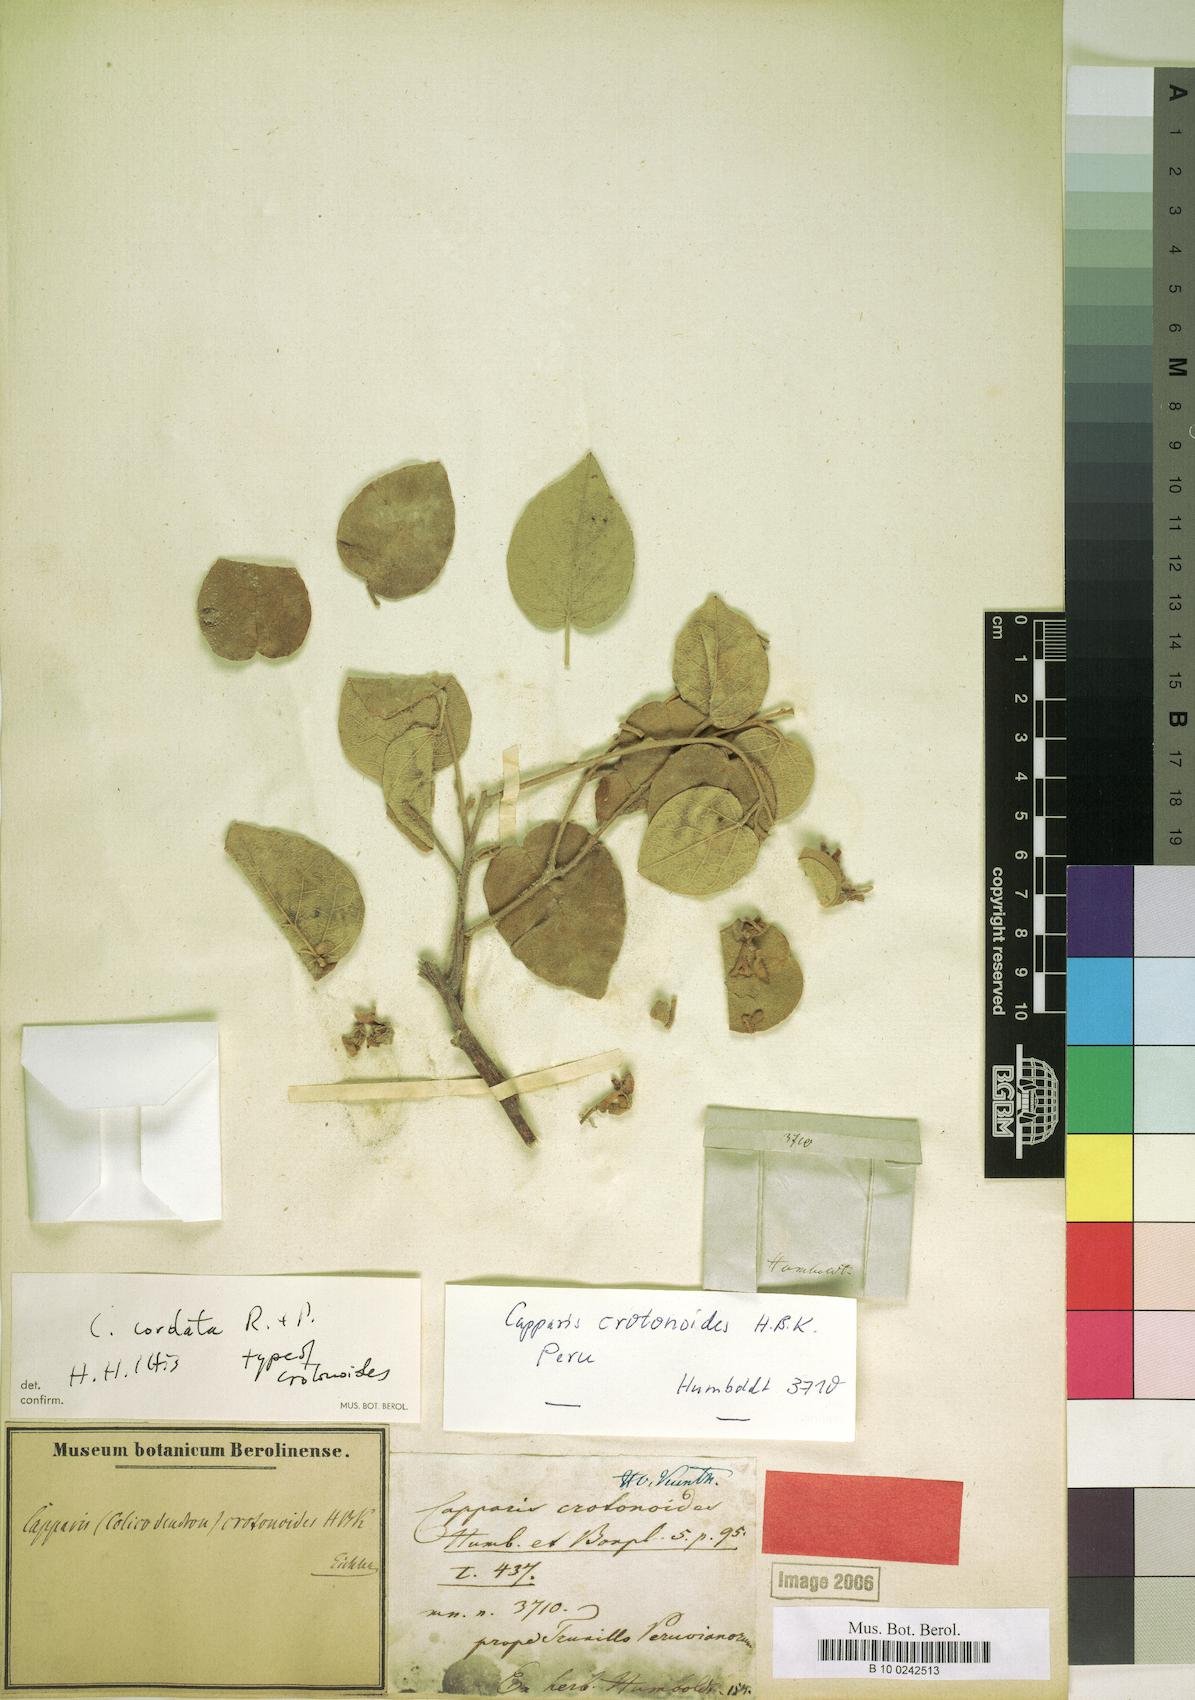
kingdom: Plantae
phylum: Tracheophyta
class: Magnoliopsida
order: Brassicales
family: Capparaceae
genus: Capparicordis
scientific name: Capparicordis crotonoides
